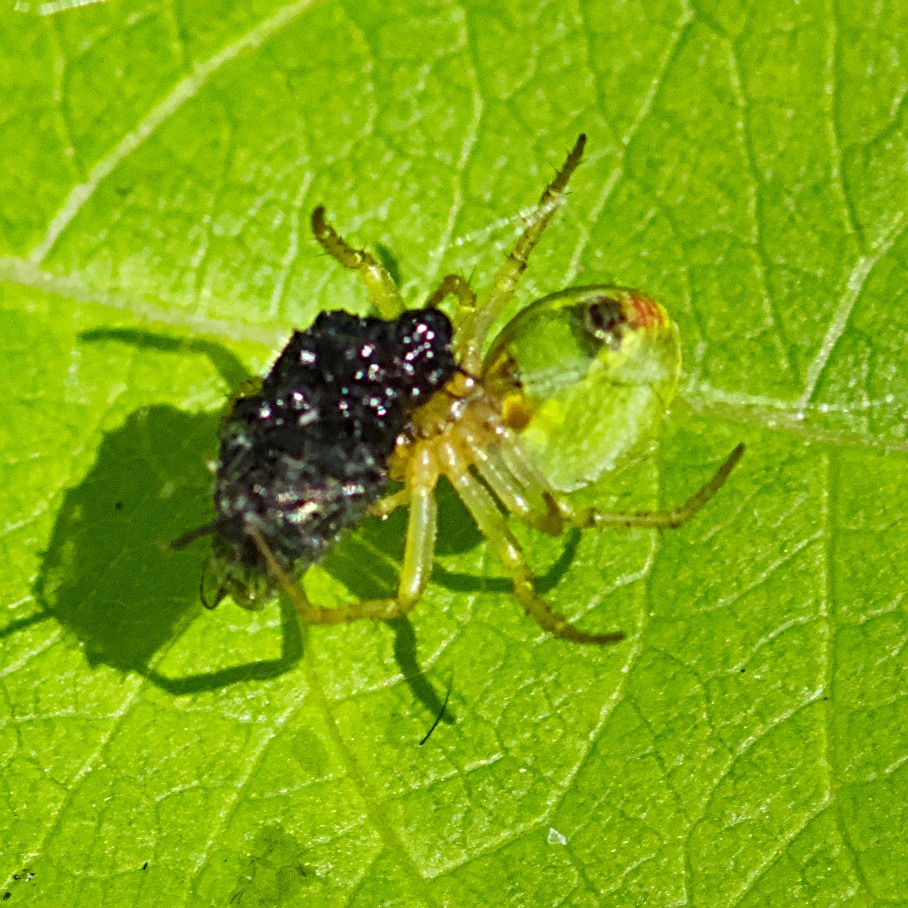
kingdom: Animalia
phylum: Arthropoda
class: Arachnida
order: Araneae
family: Araneidae
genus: Araniella
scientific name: Araniella
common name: Agurkeedderkopslægten
